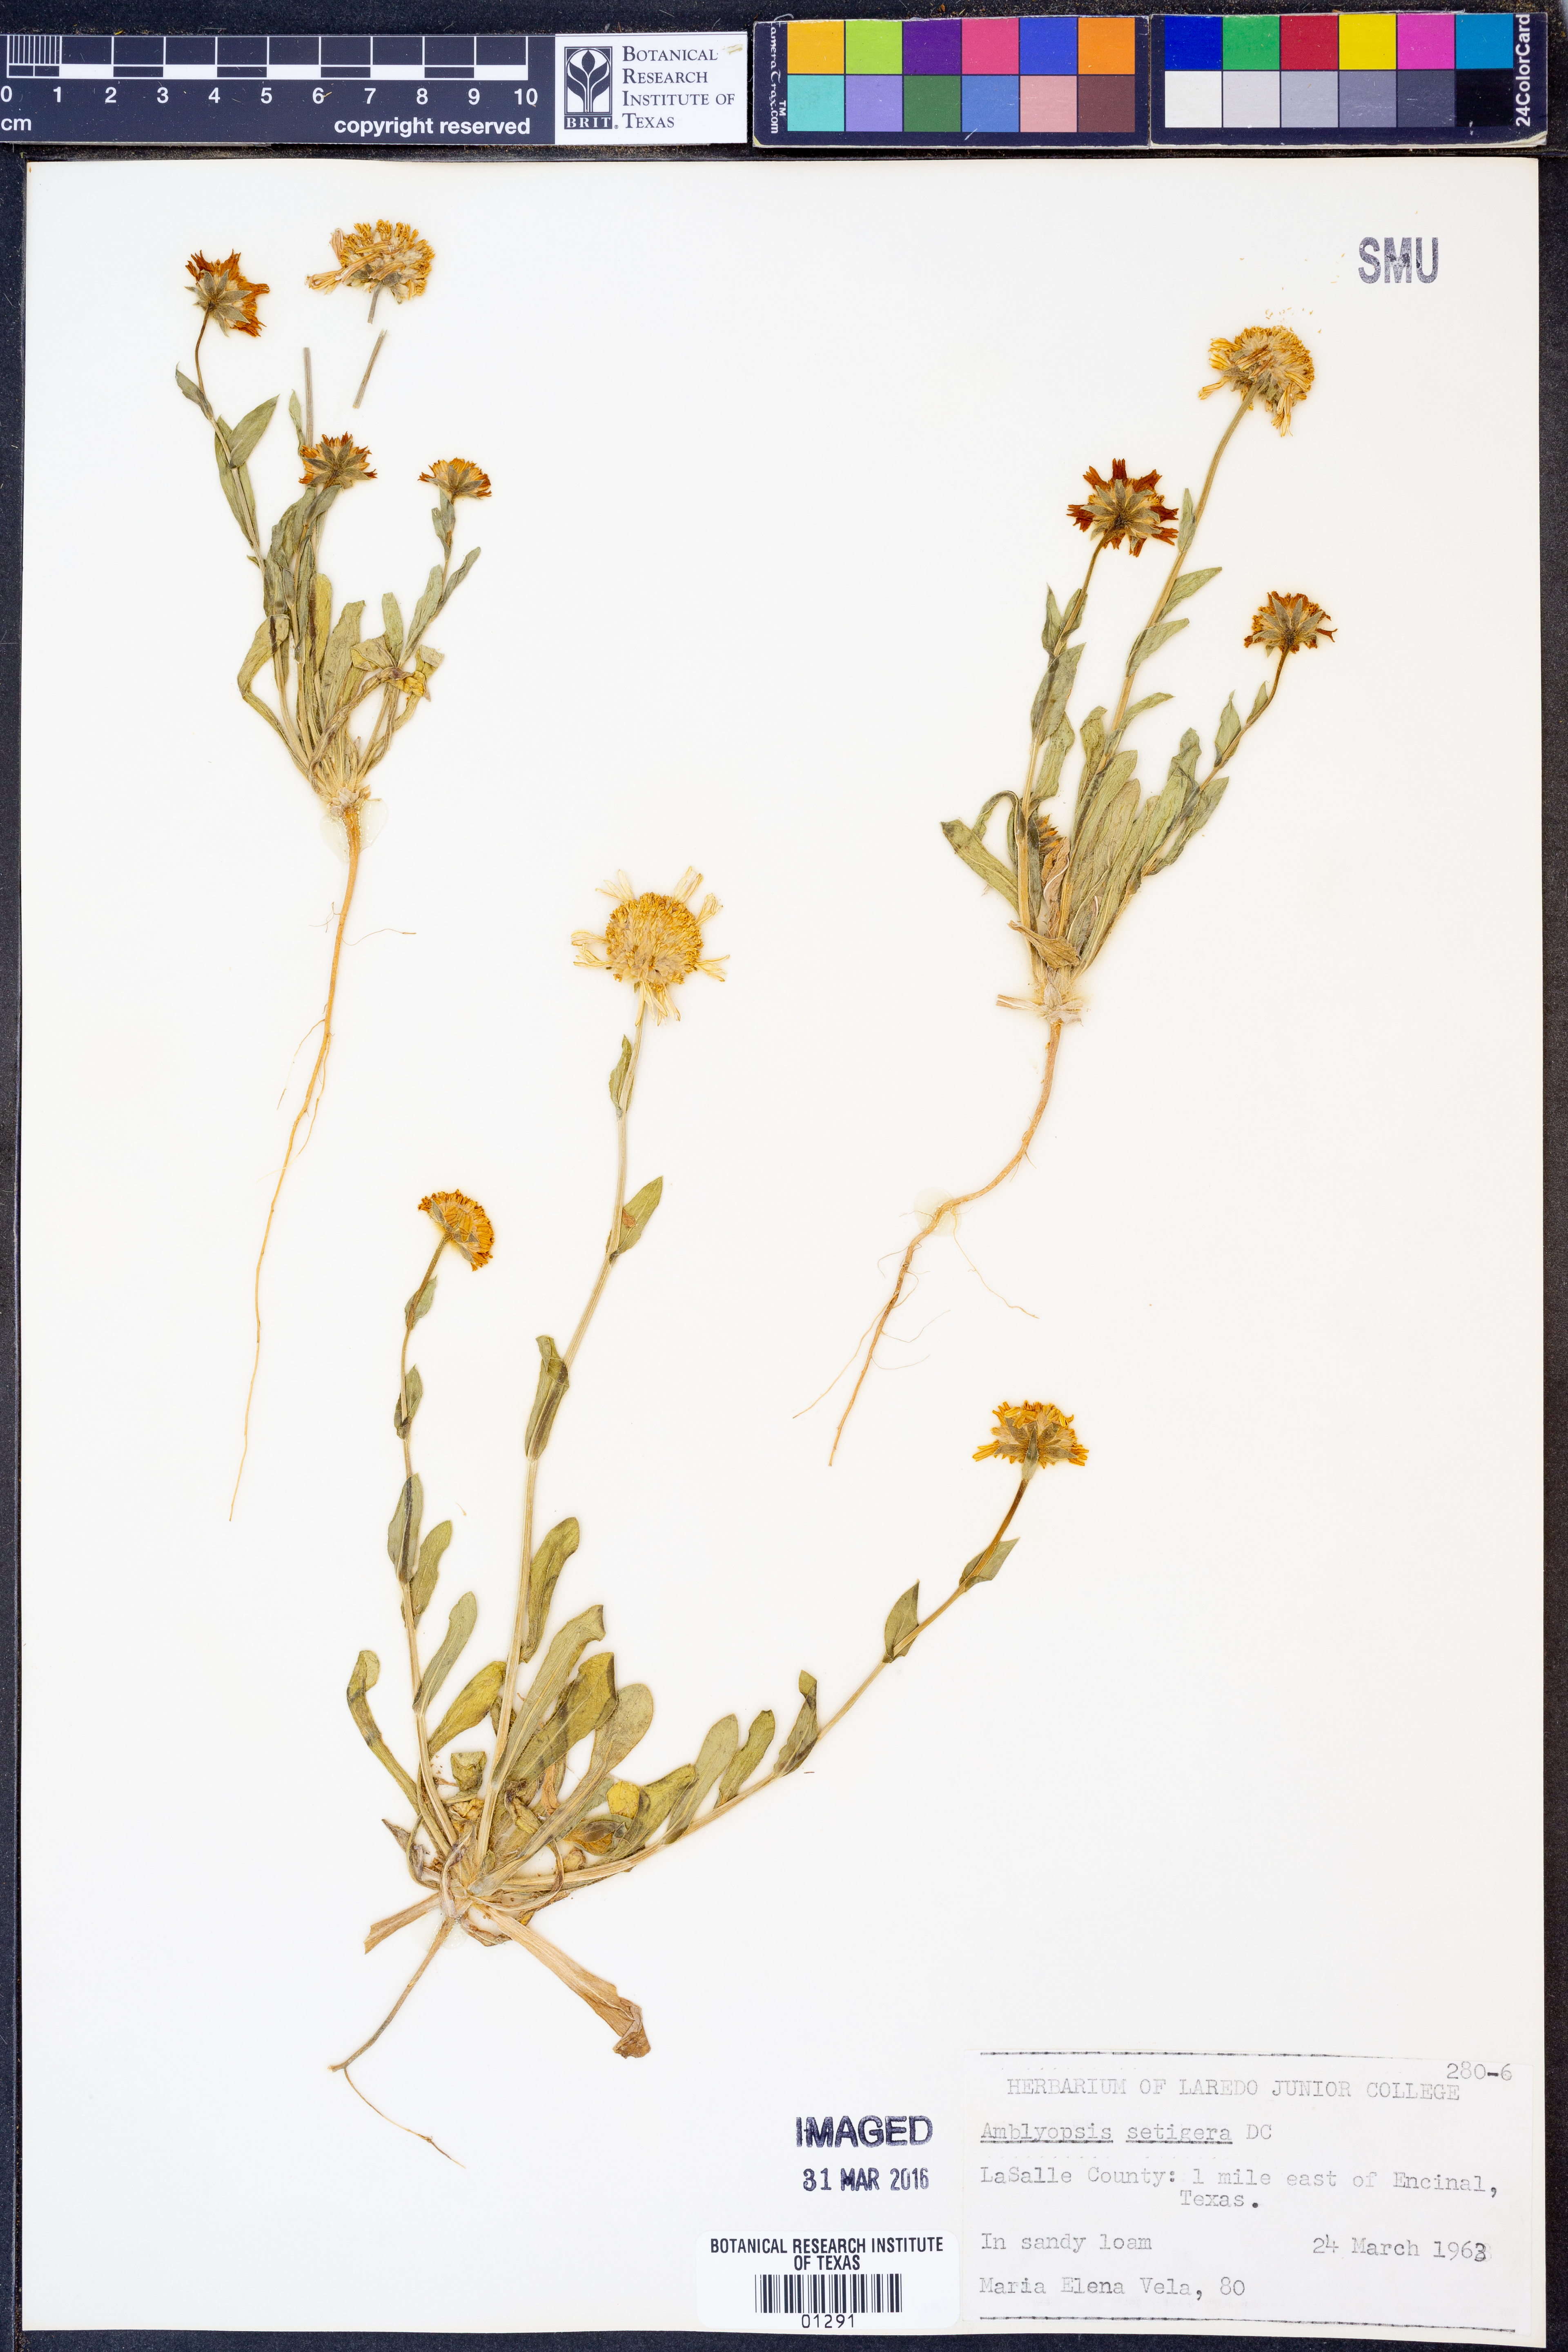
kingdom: Plantae
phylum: Tracheophyta
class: Magnoliopsida
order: Asterales
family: Asteraceae
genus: Amblyolepis
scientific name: Amblyolepis setigera
